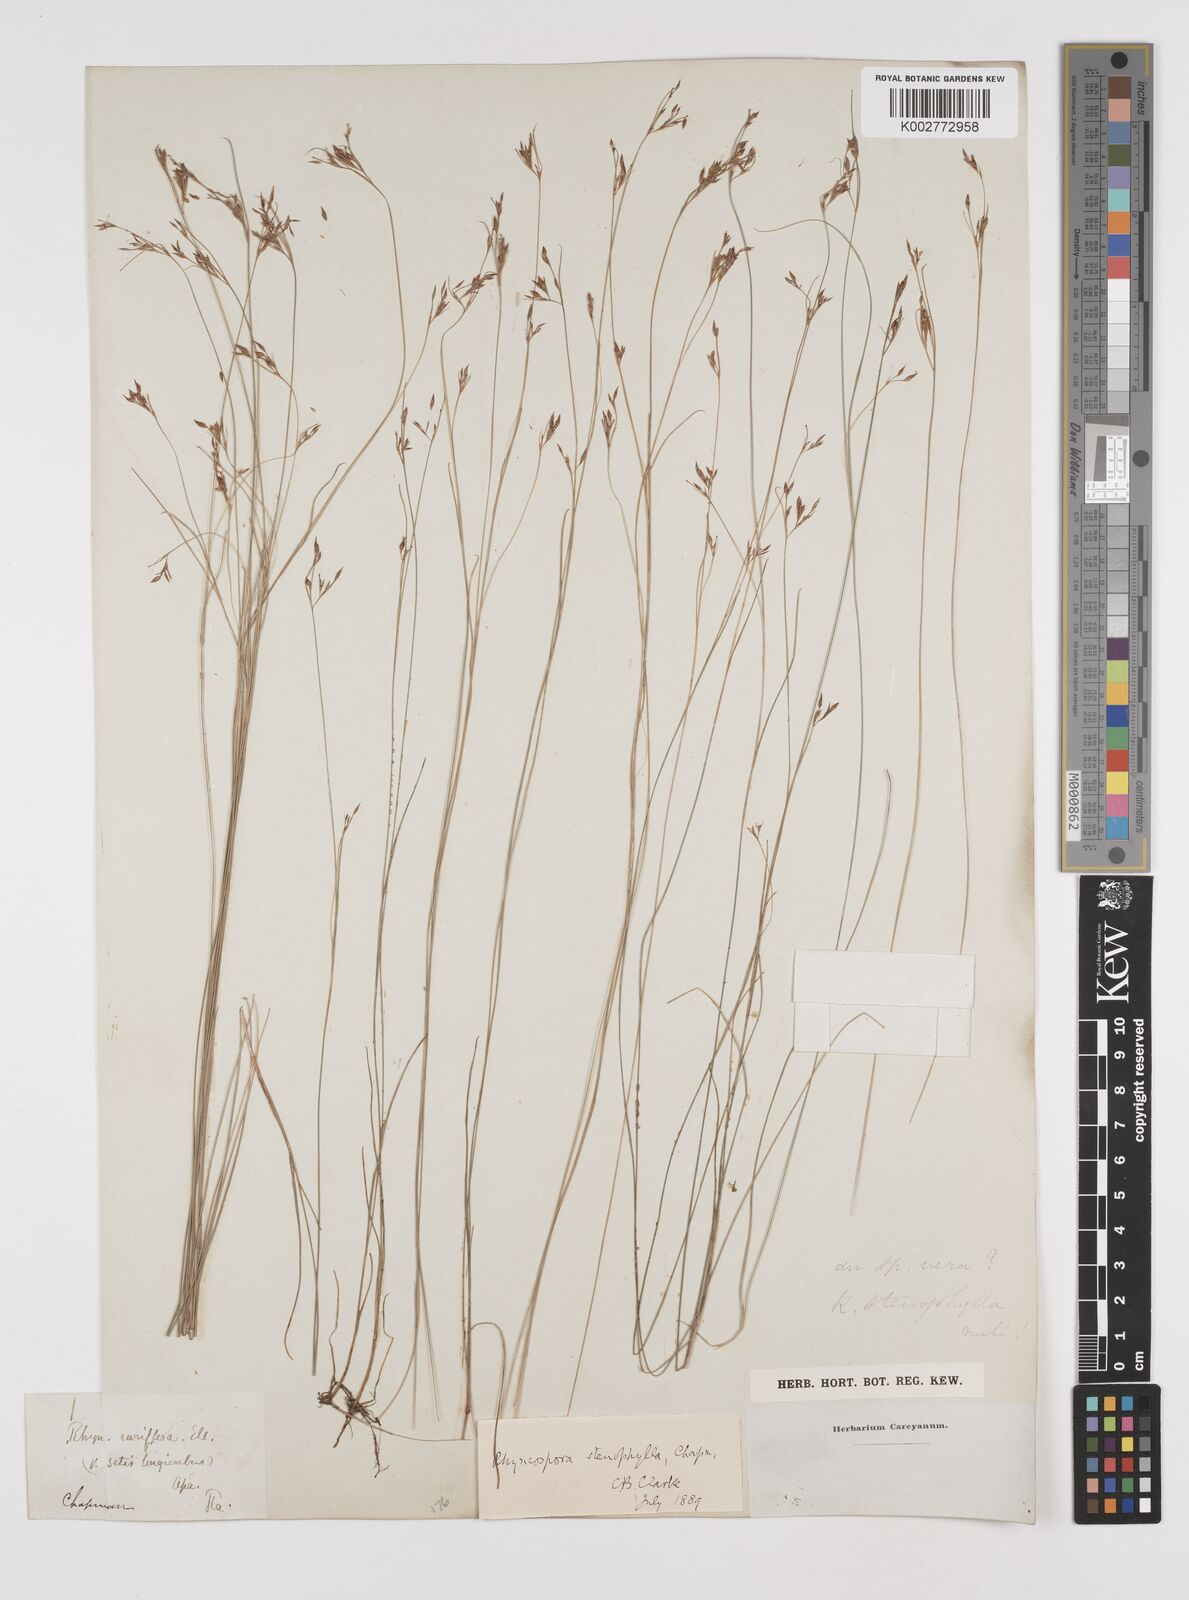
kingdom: Plantae
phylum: Tracheophyta
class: Liliopsida
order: Poales
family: Cyperaceae
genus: Rhynchospora
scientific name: Rhynchospora stenophylla
